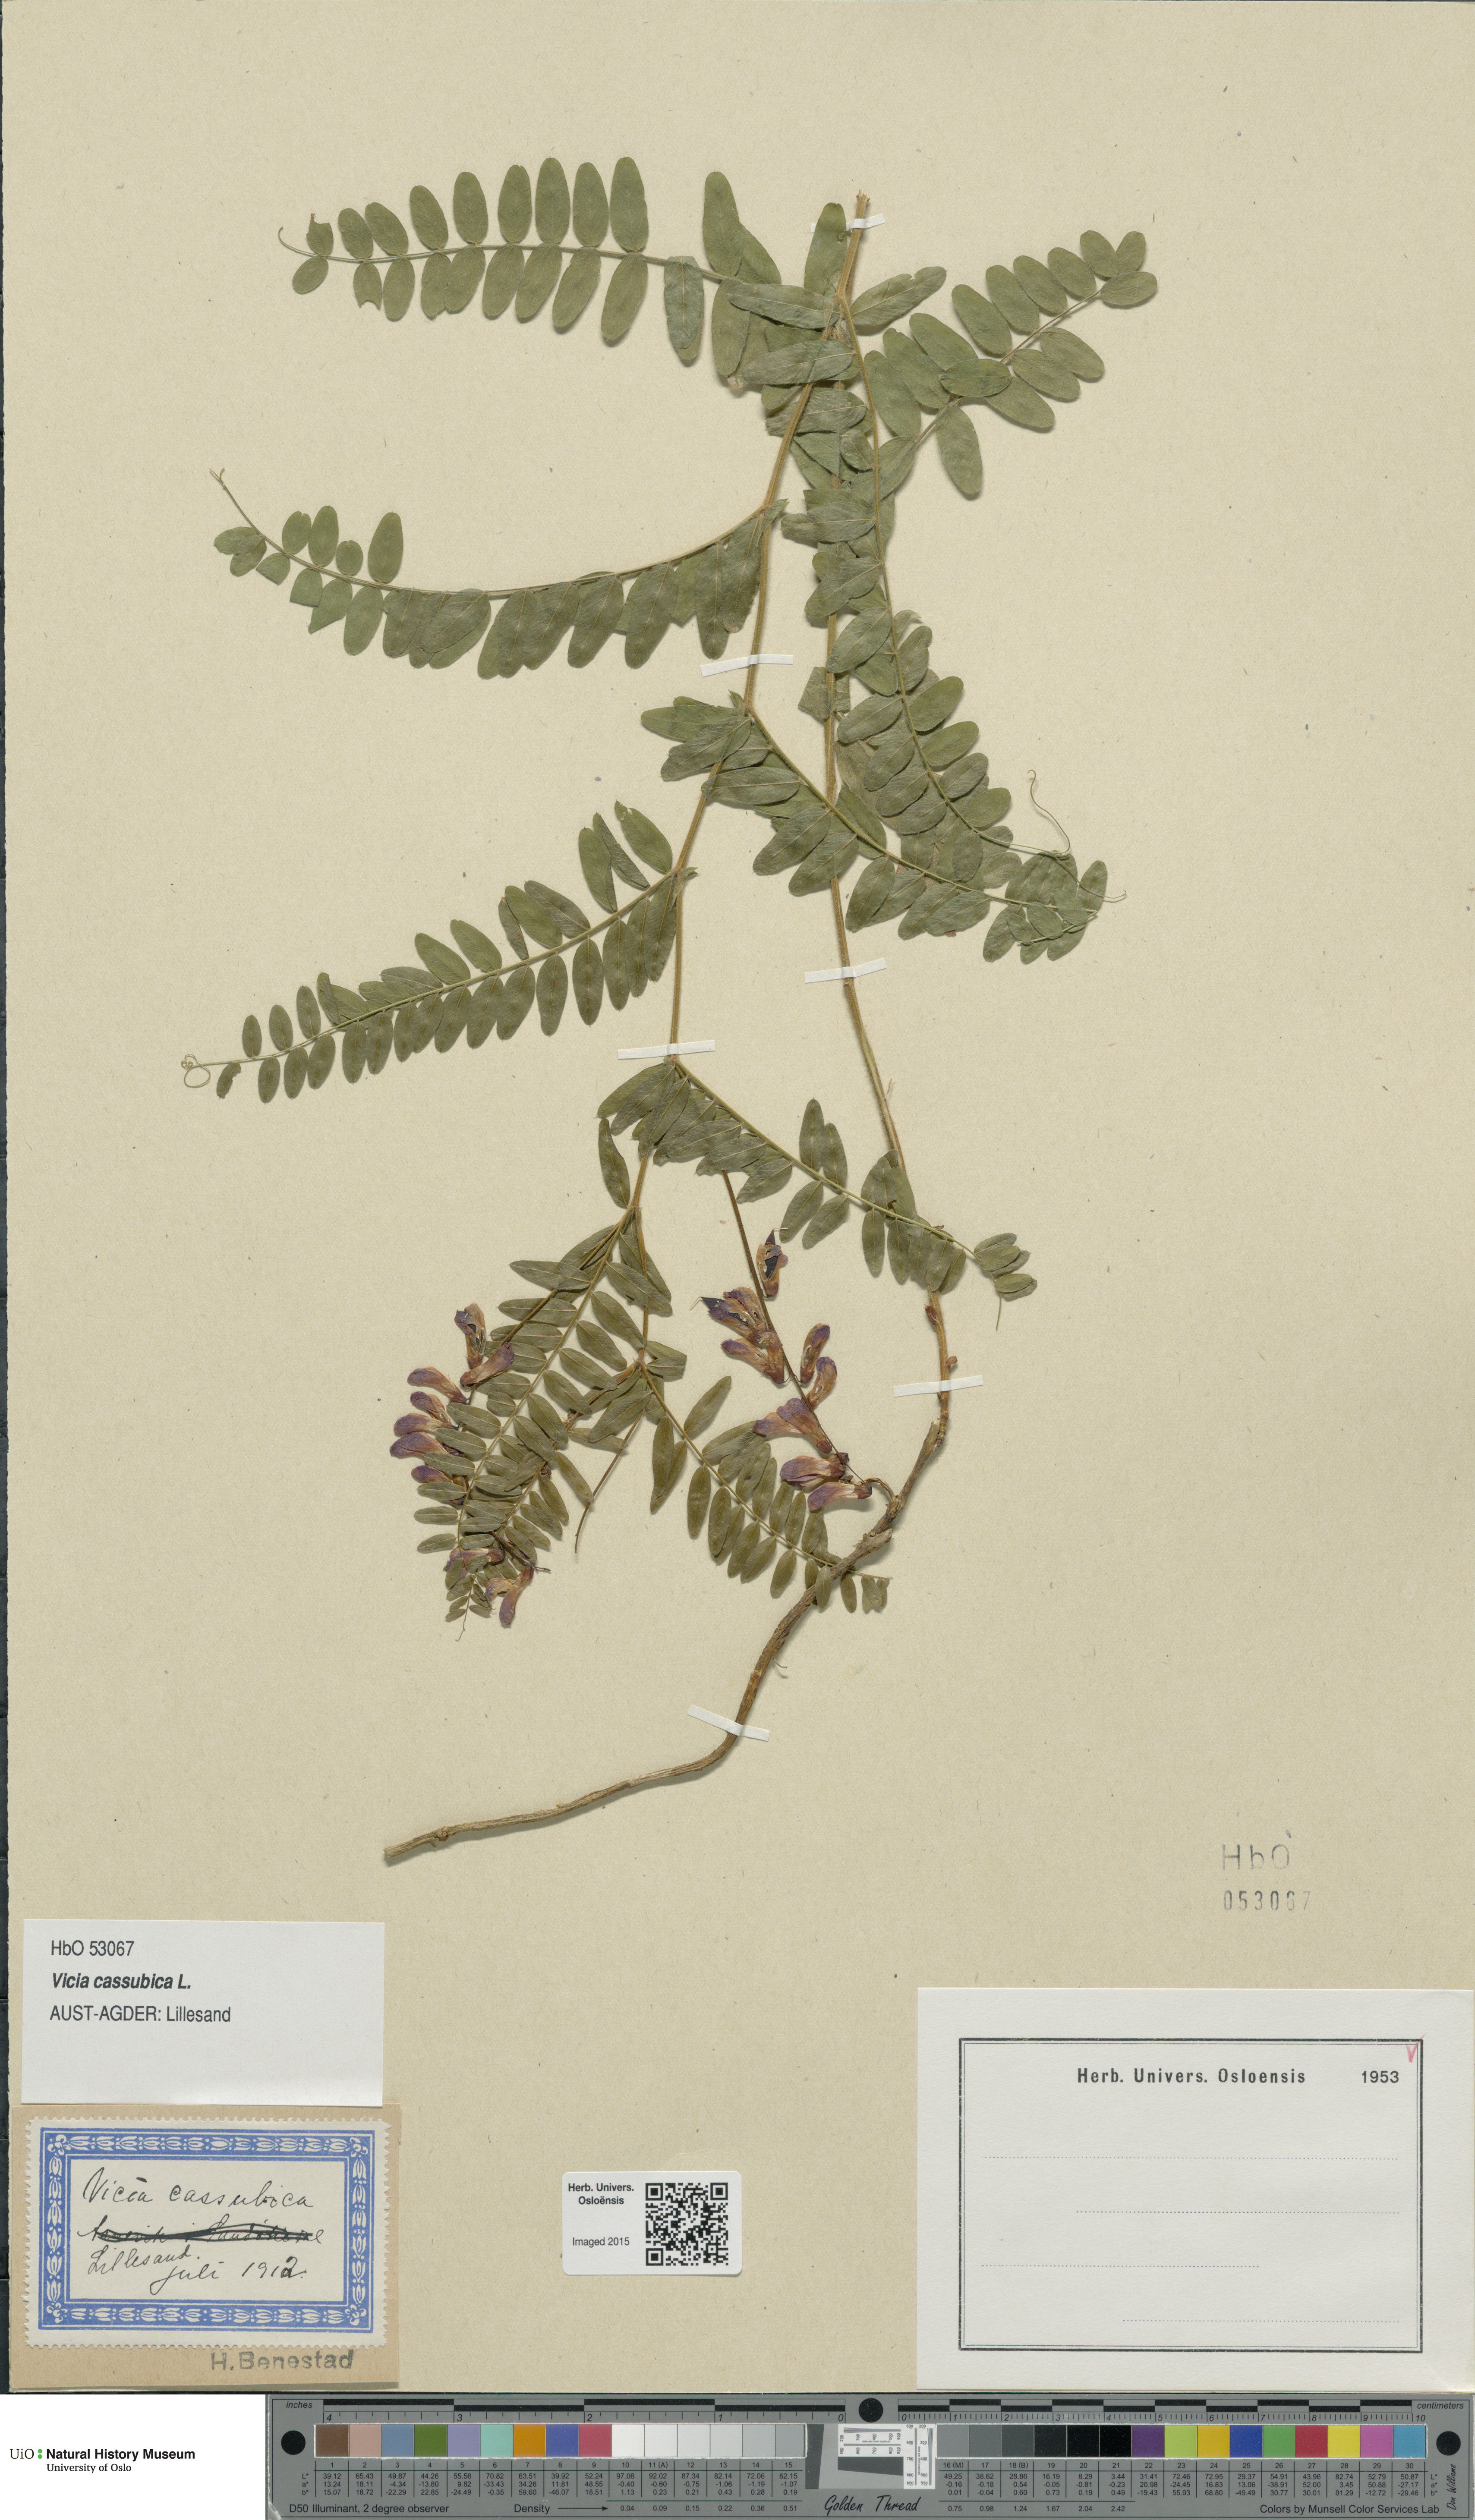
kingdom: Plantae
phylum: Tracheophyta
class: Magnoliopsida
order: Fabales
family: Fabaceae
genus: Vicia
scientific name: Vicia cassubica
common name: Danzig vetch
